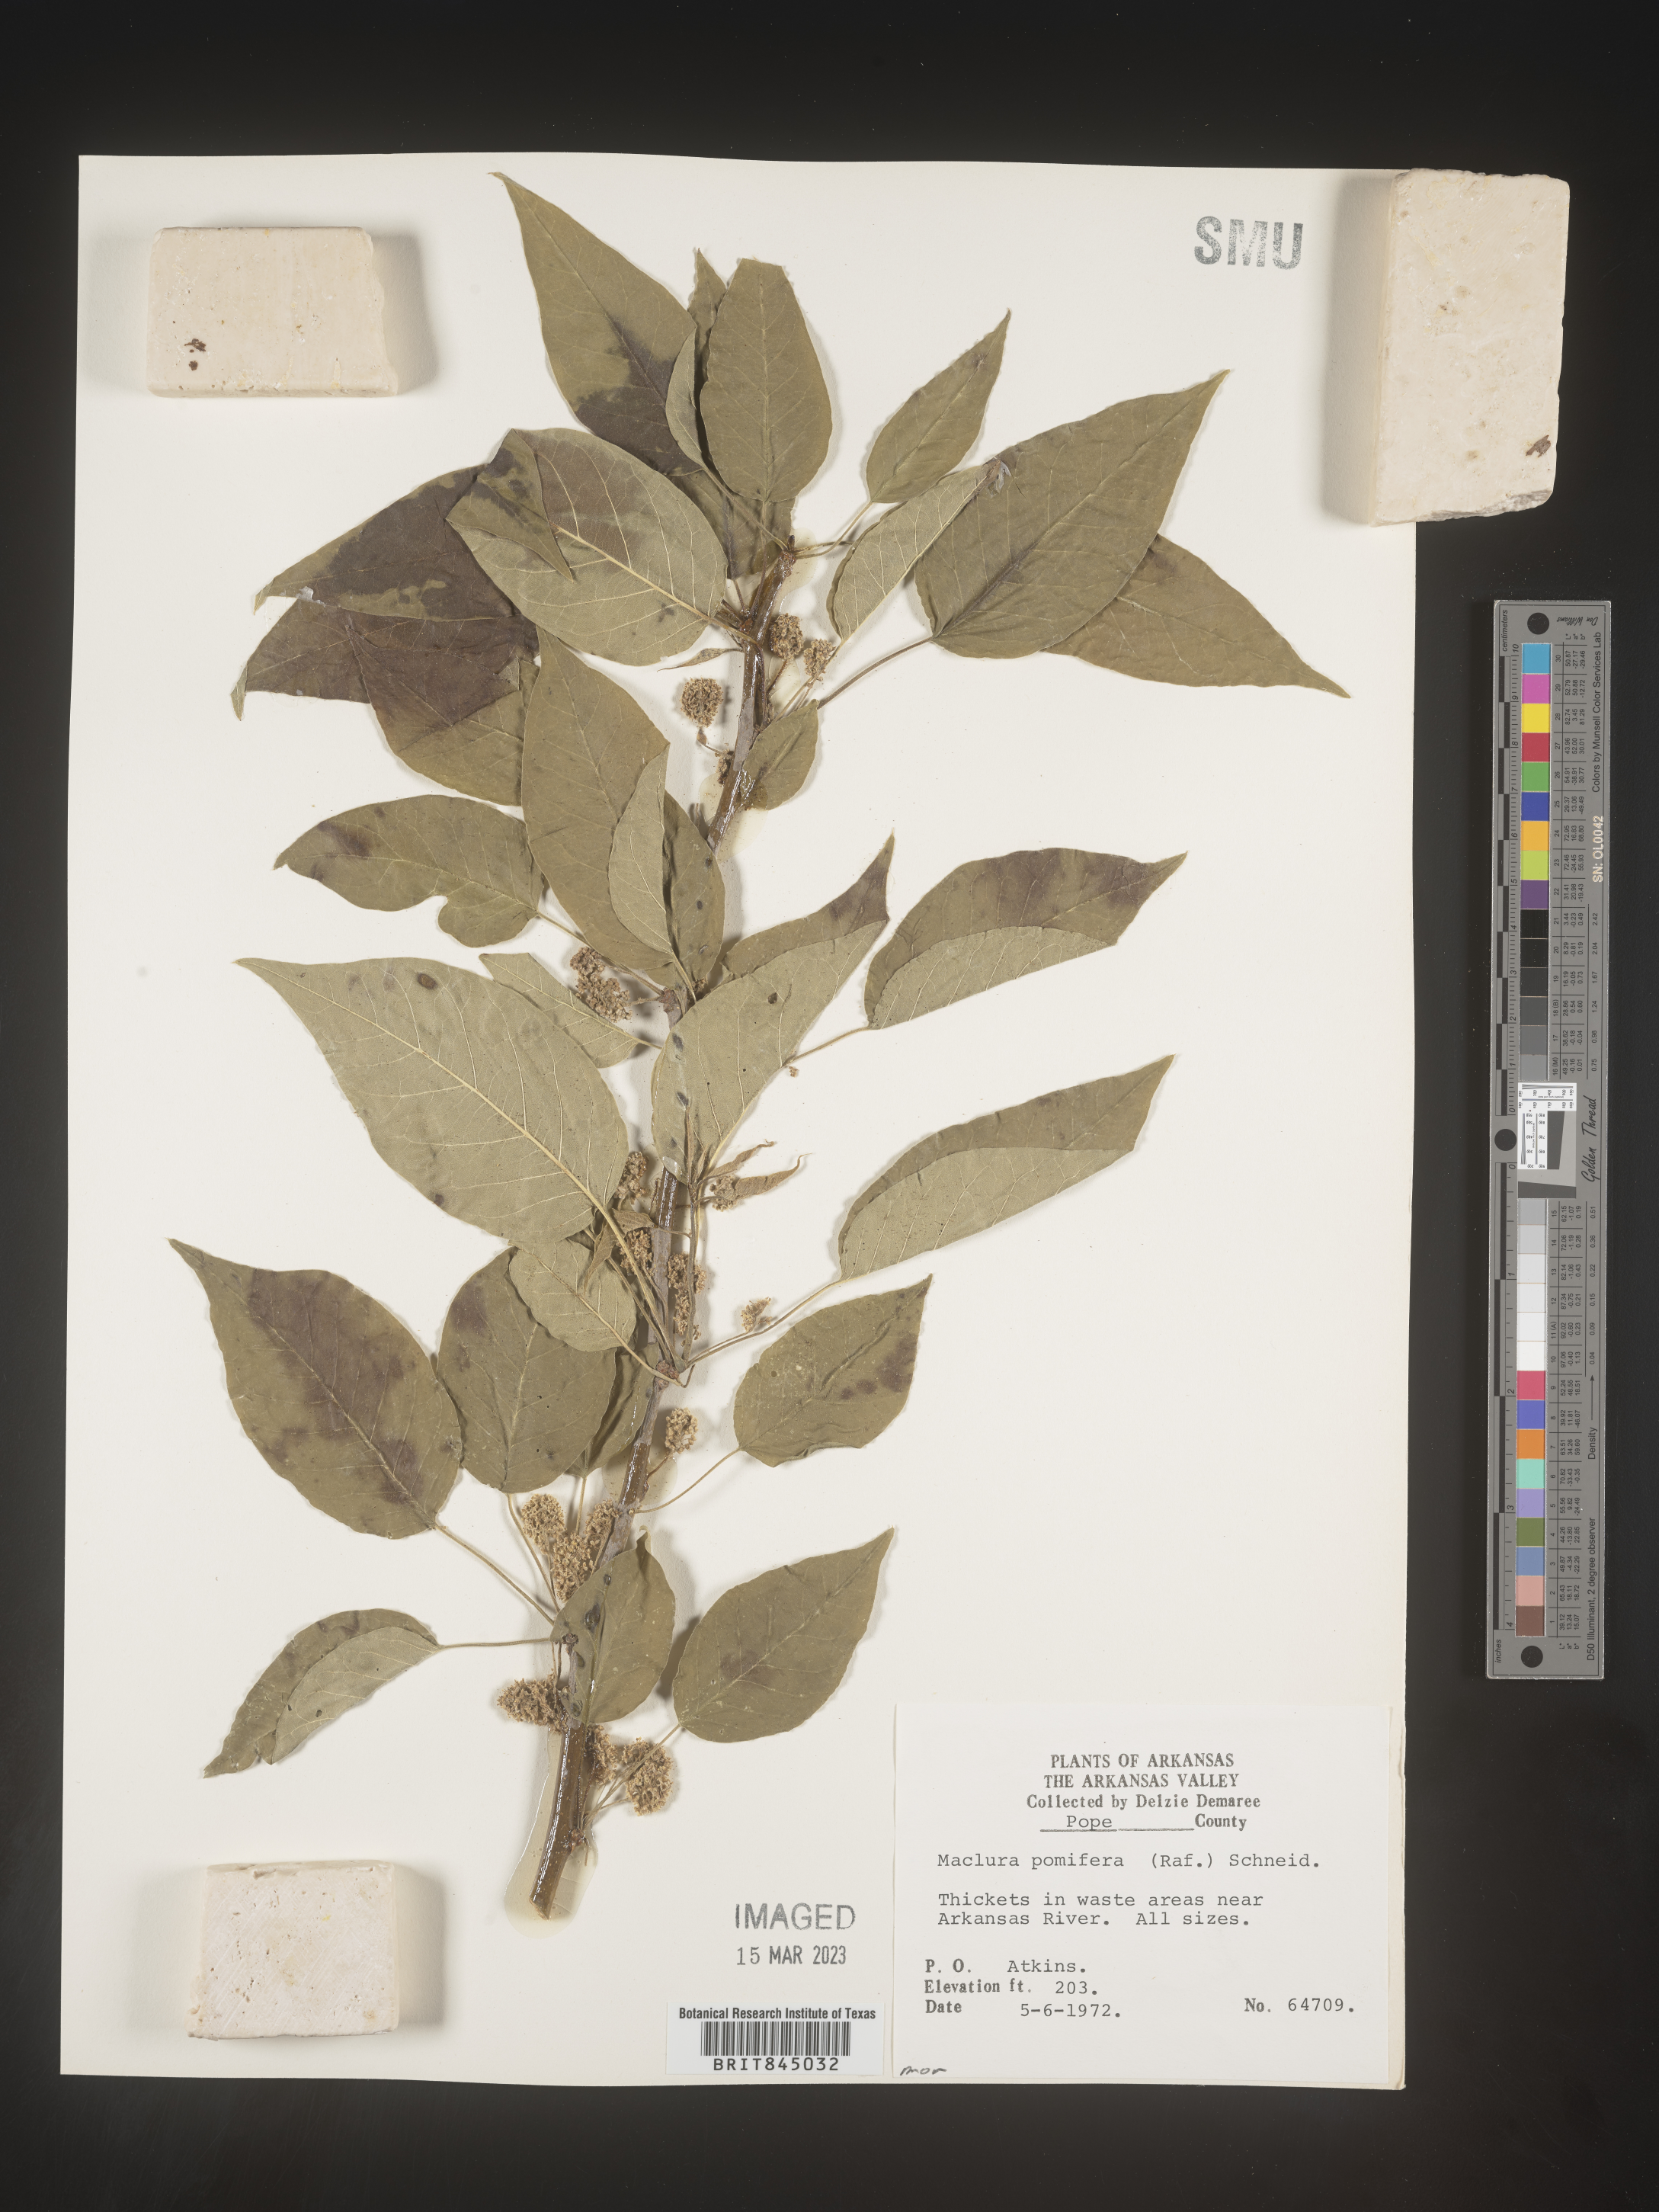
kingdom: Plantae
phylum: Tracheophyta
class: Magnoliopsida
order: Rosales
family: Moraceae
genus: Maclura
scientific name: Maclura pomifera
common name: Osage-orange
